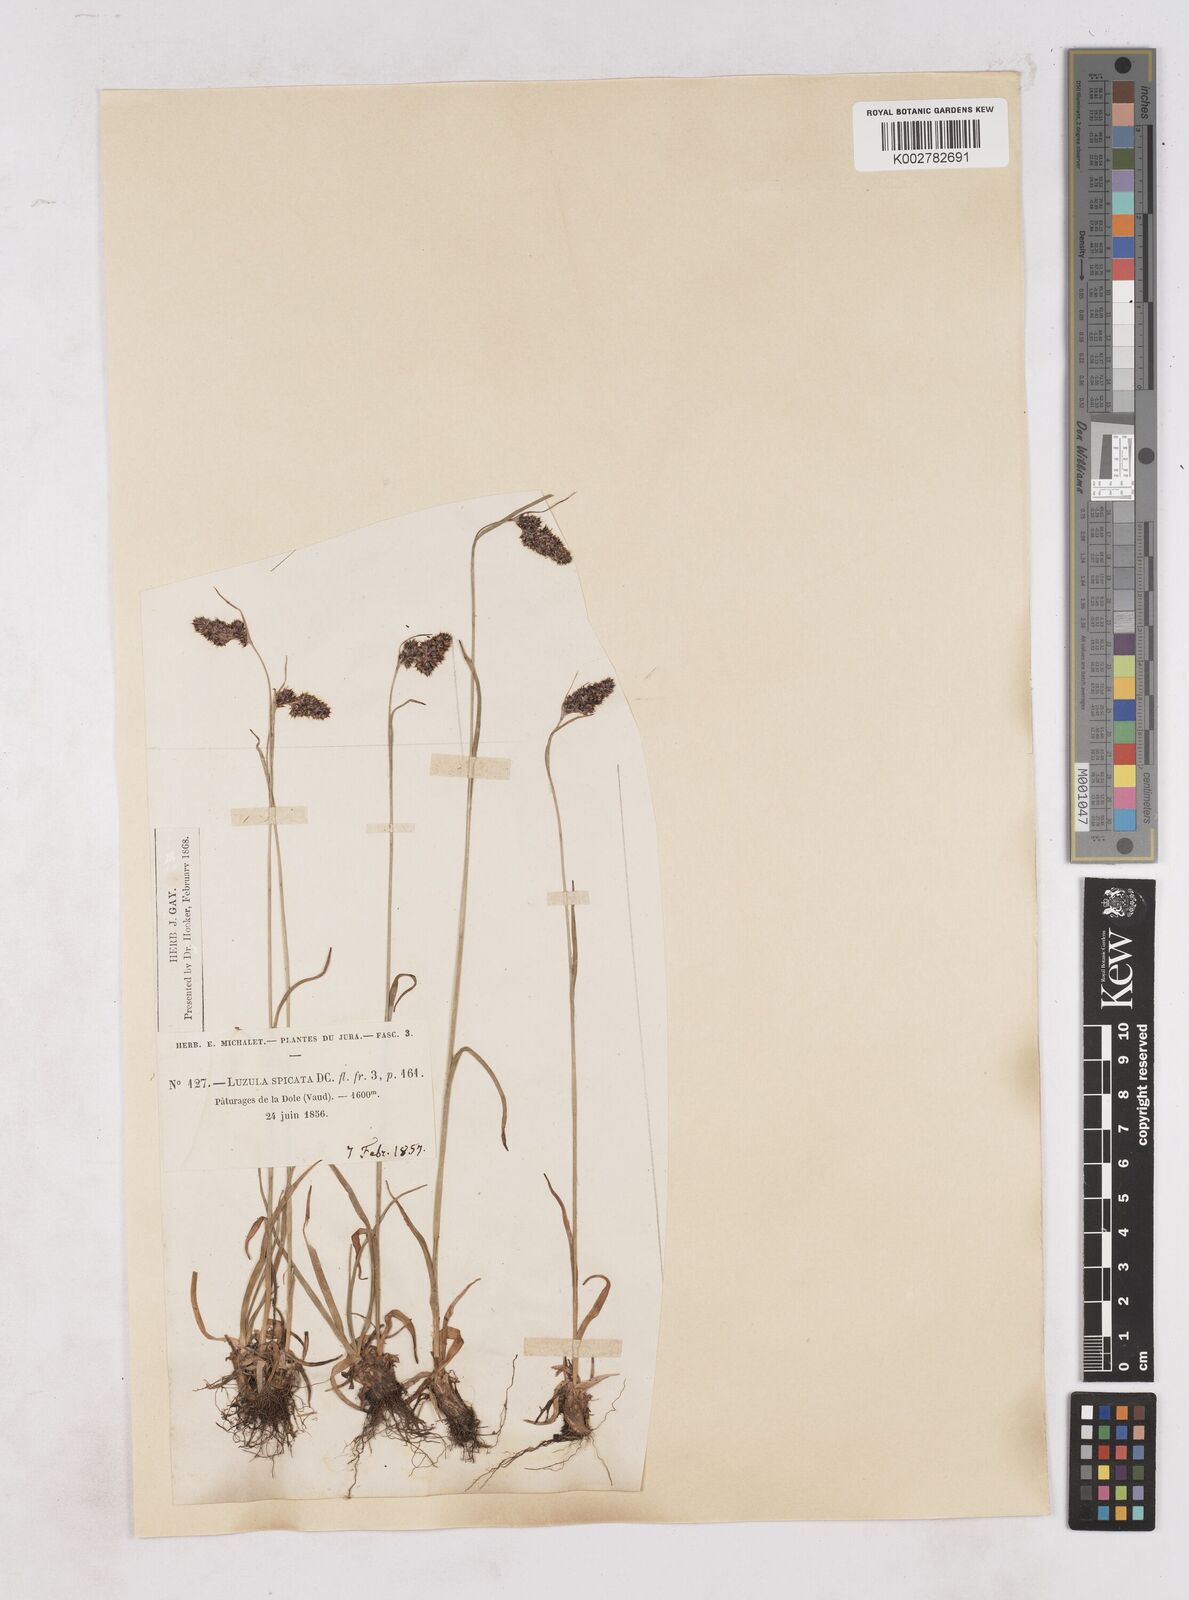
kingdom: Plantae
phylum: Tracheophyta
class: Liliopsida
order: Poales
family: Juncaceae
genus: Luzula
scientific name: Luzula spicata
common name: Spiked wood-rush
